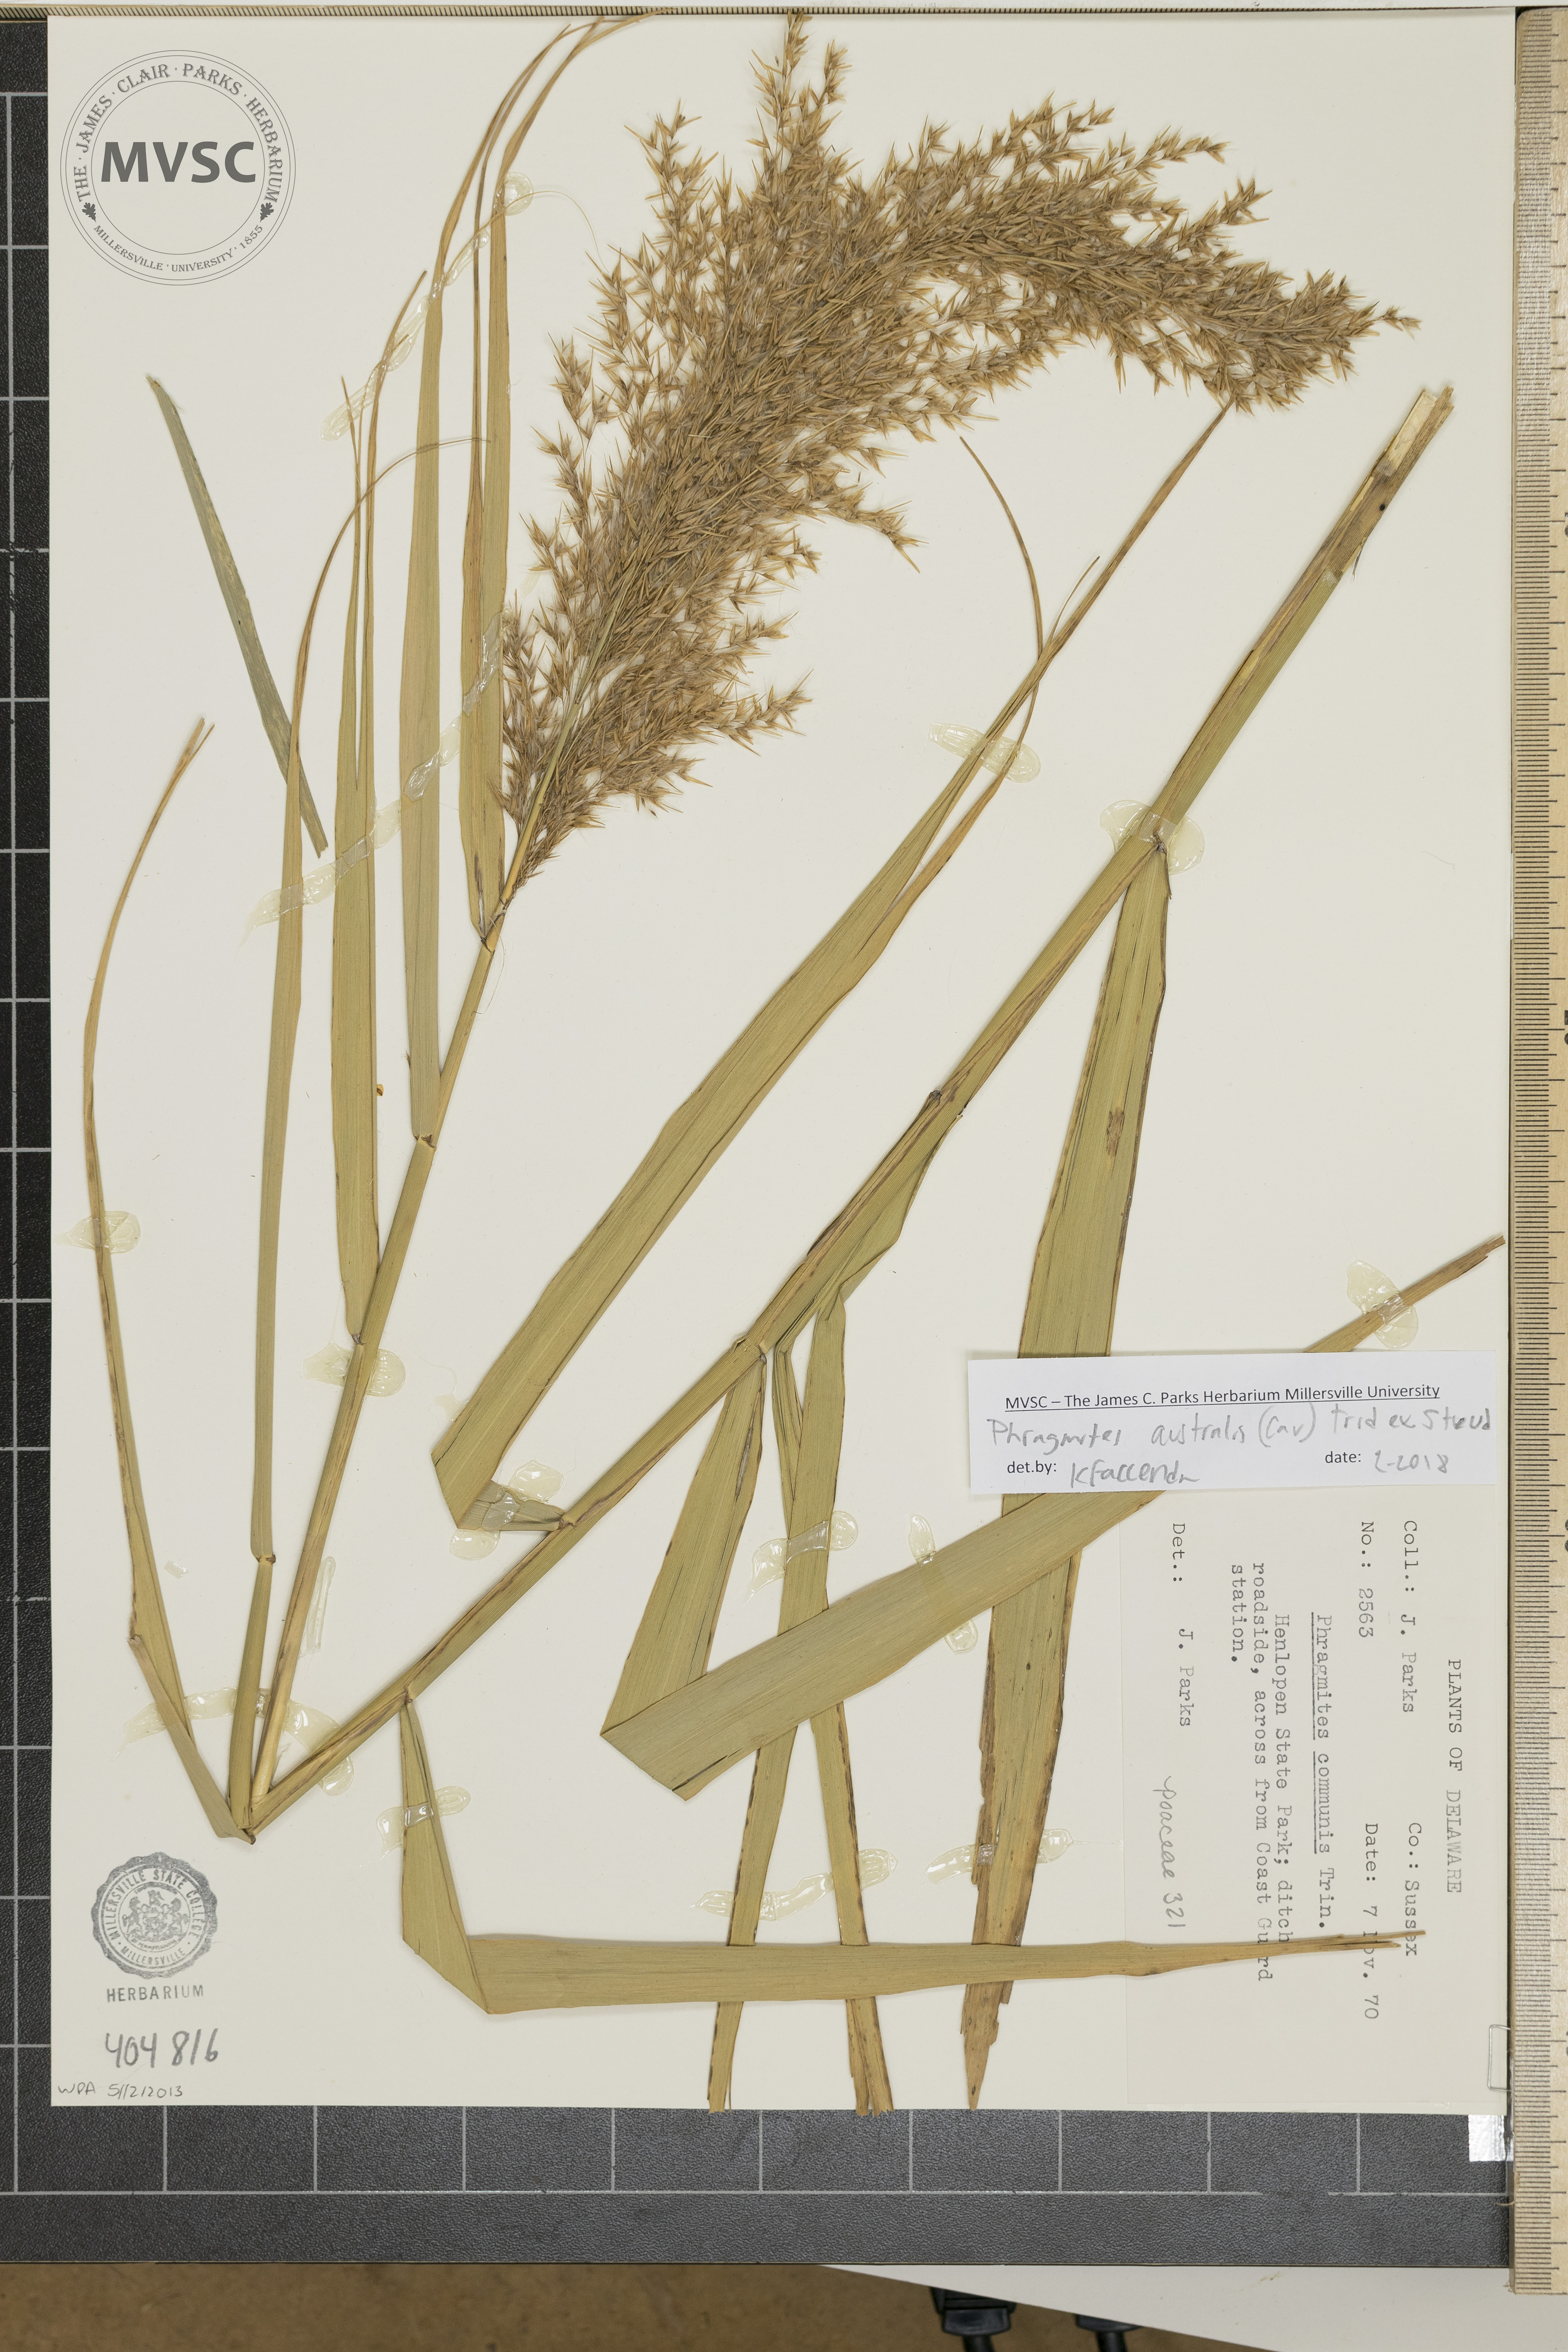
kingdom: Plantae
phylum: Tracheophyta
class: Liliopsida
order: Poales
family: Poaceae
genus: Phragmites
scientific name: Phragmites australis
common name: Common Reed
